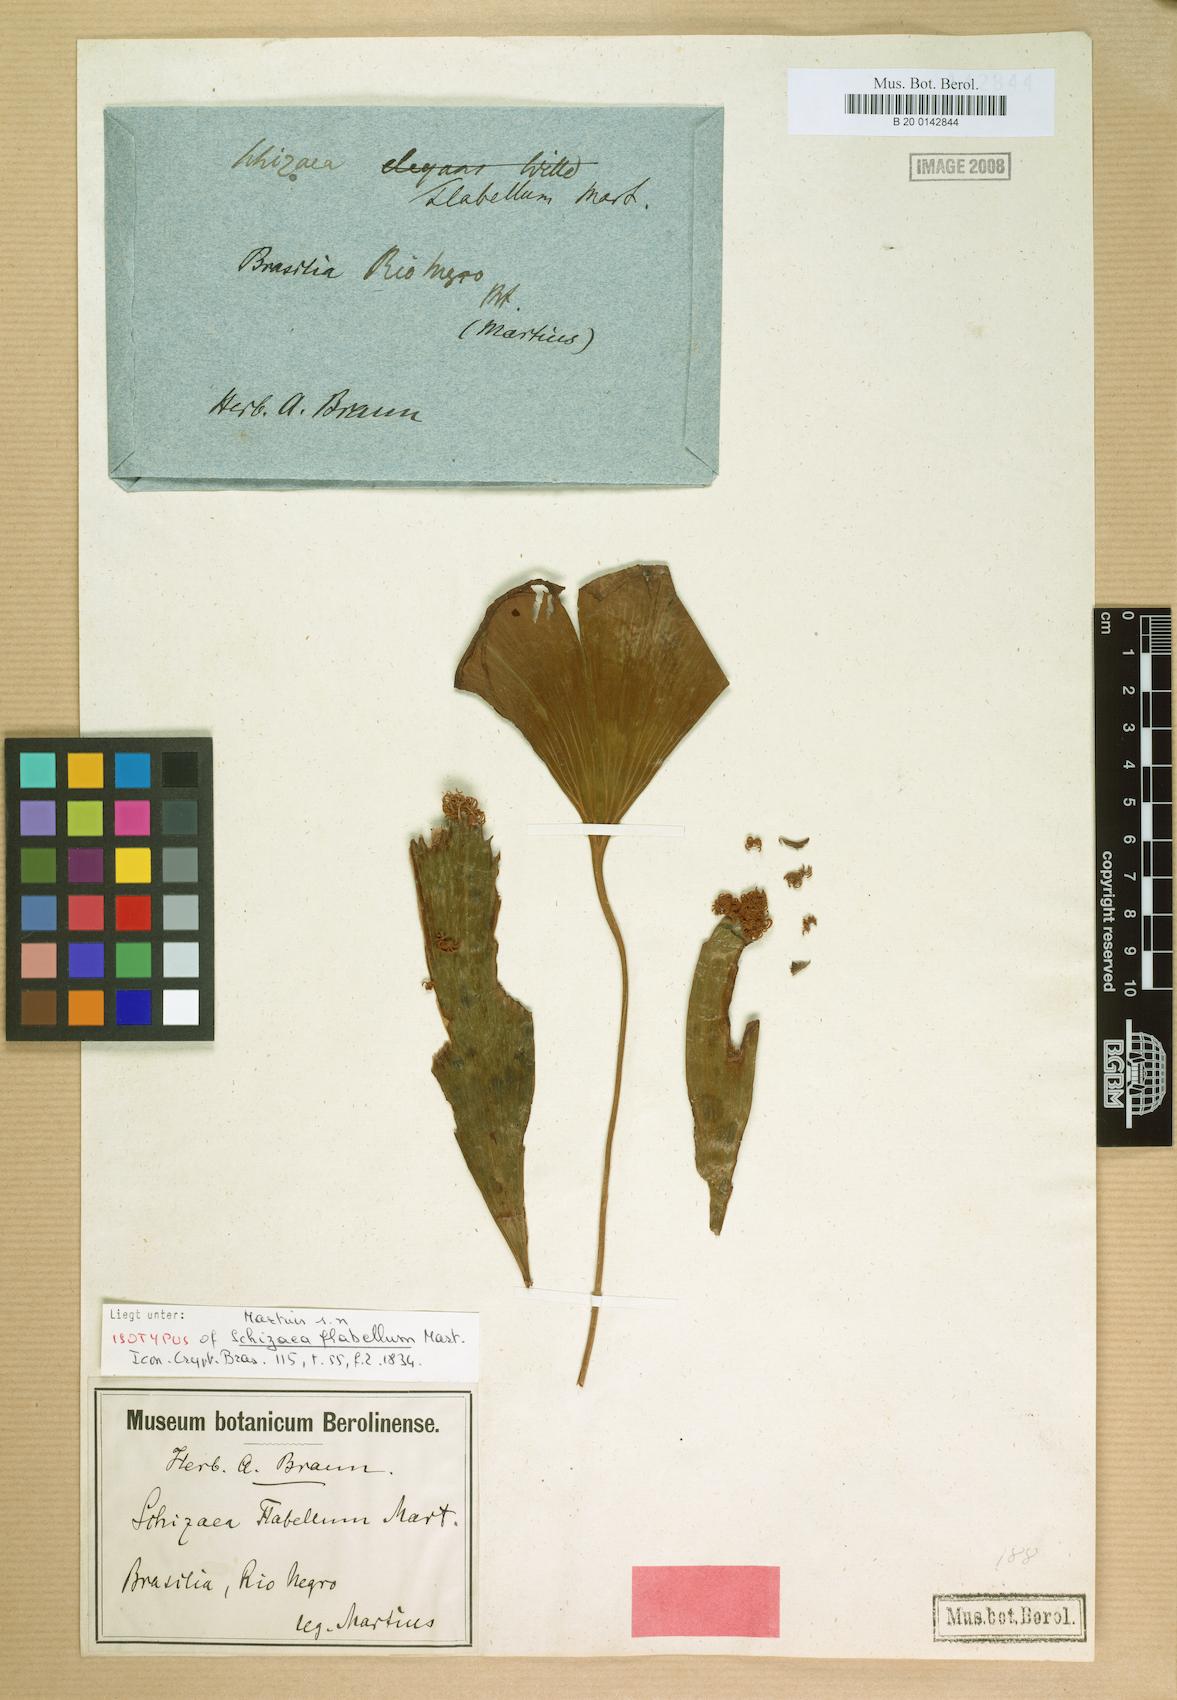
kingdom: Plantae
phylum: Tracheophyta
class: Polypodiopsida
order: Schizaeales
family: Schizaeaceae
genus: Schizaea
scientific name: Schizaea elegans
